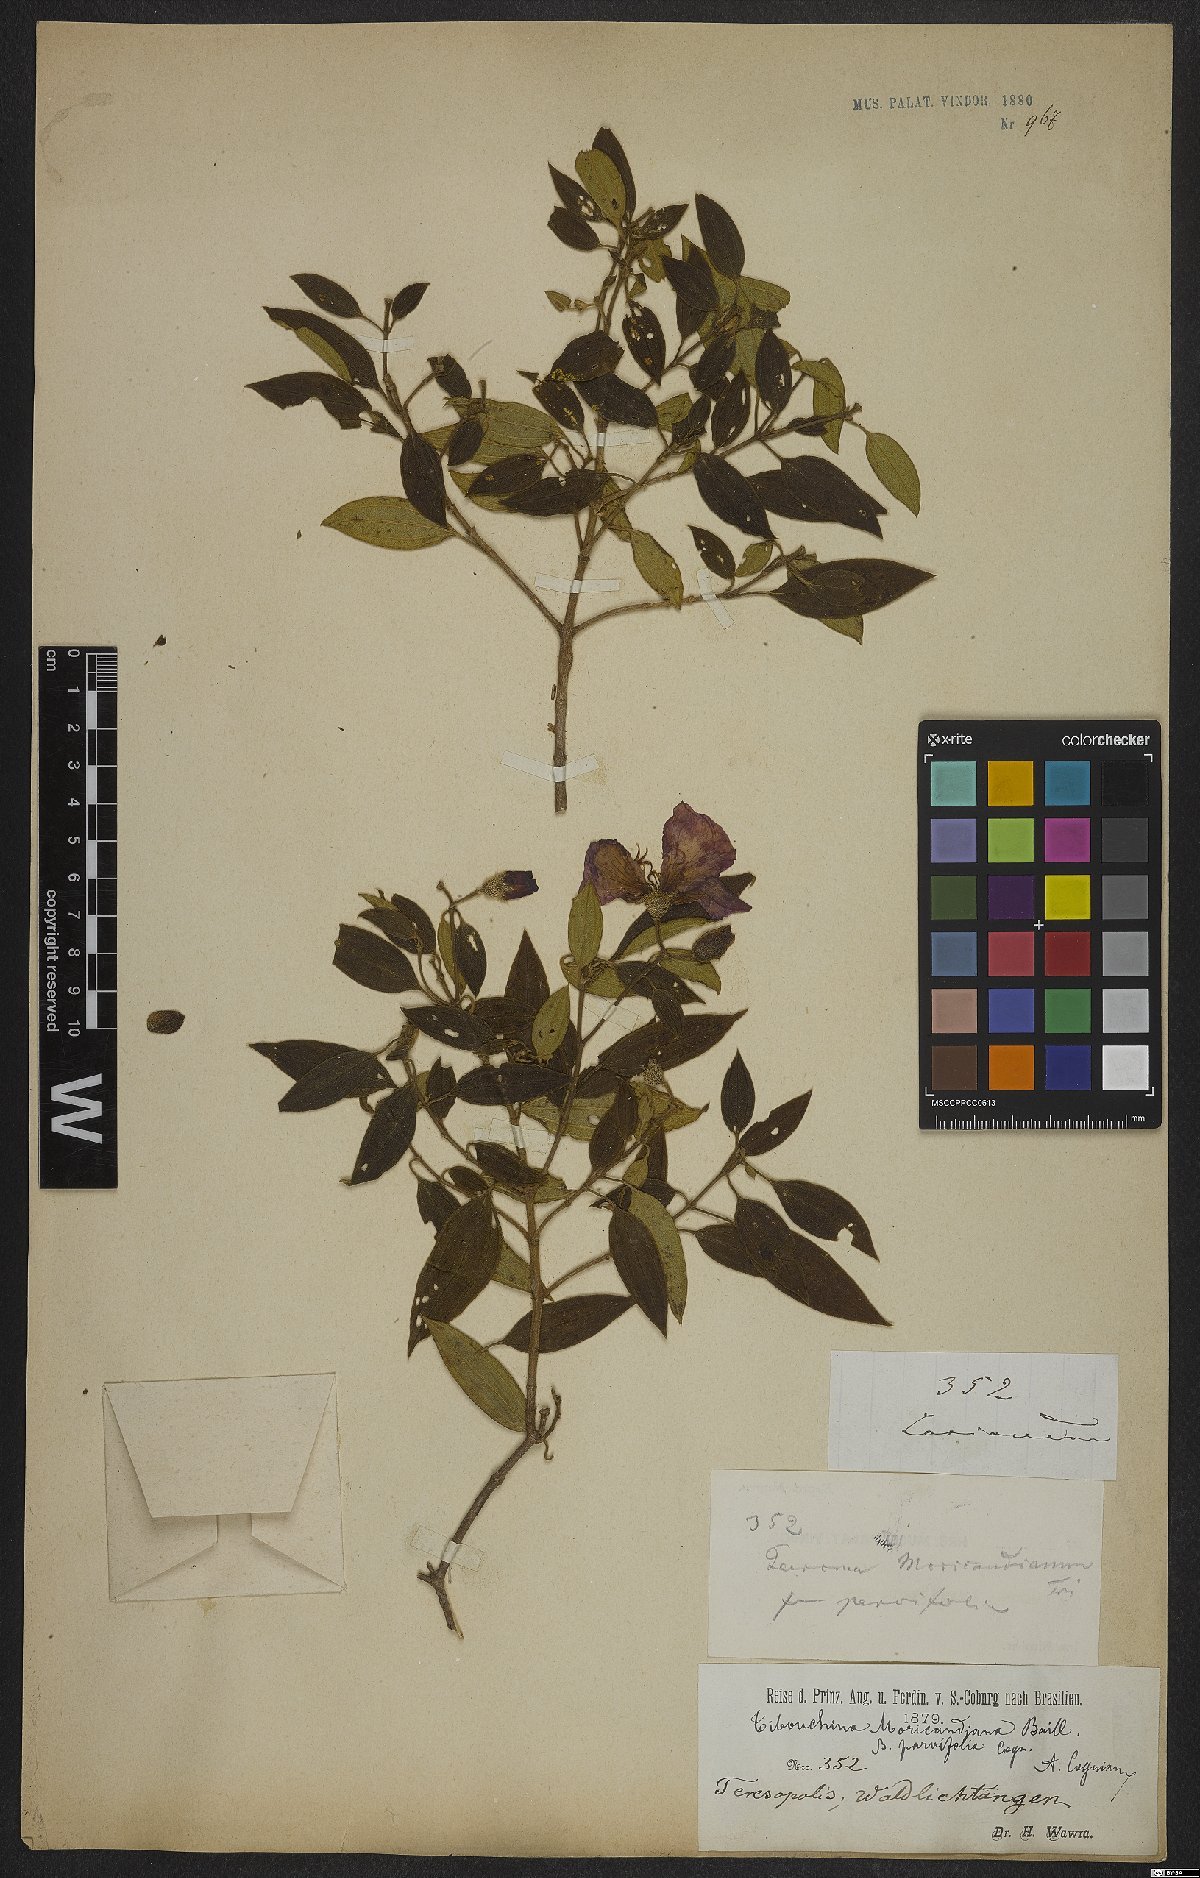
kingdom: Plantae
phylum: Tracheophyta
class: Magnoliopsida
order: Myrtales
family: Melastomataceae
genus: Pleroma
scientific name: Pleroma gaudichaudianum
